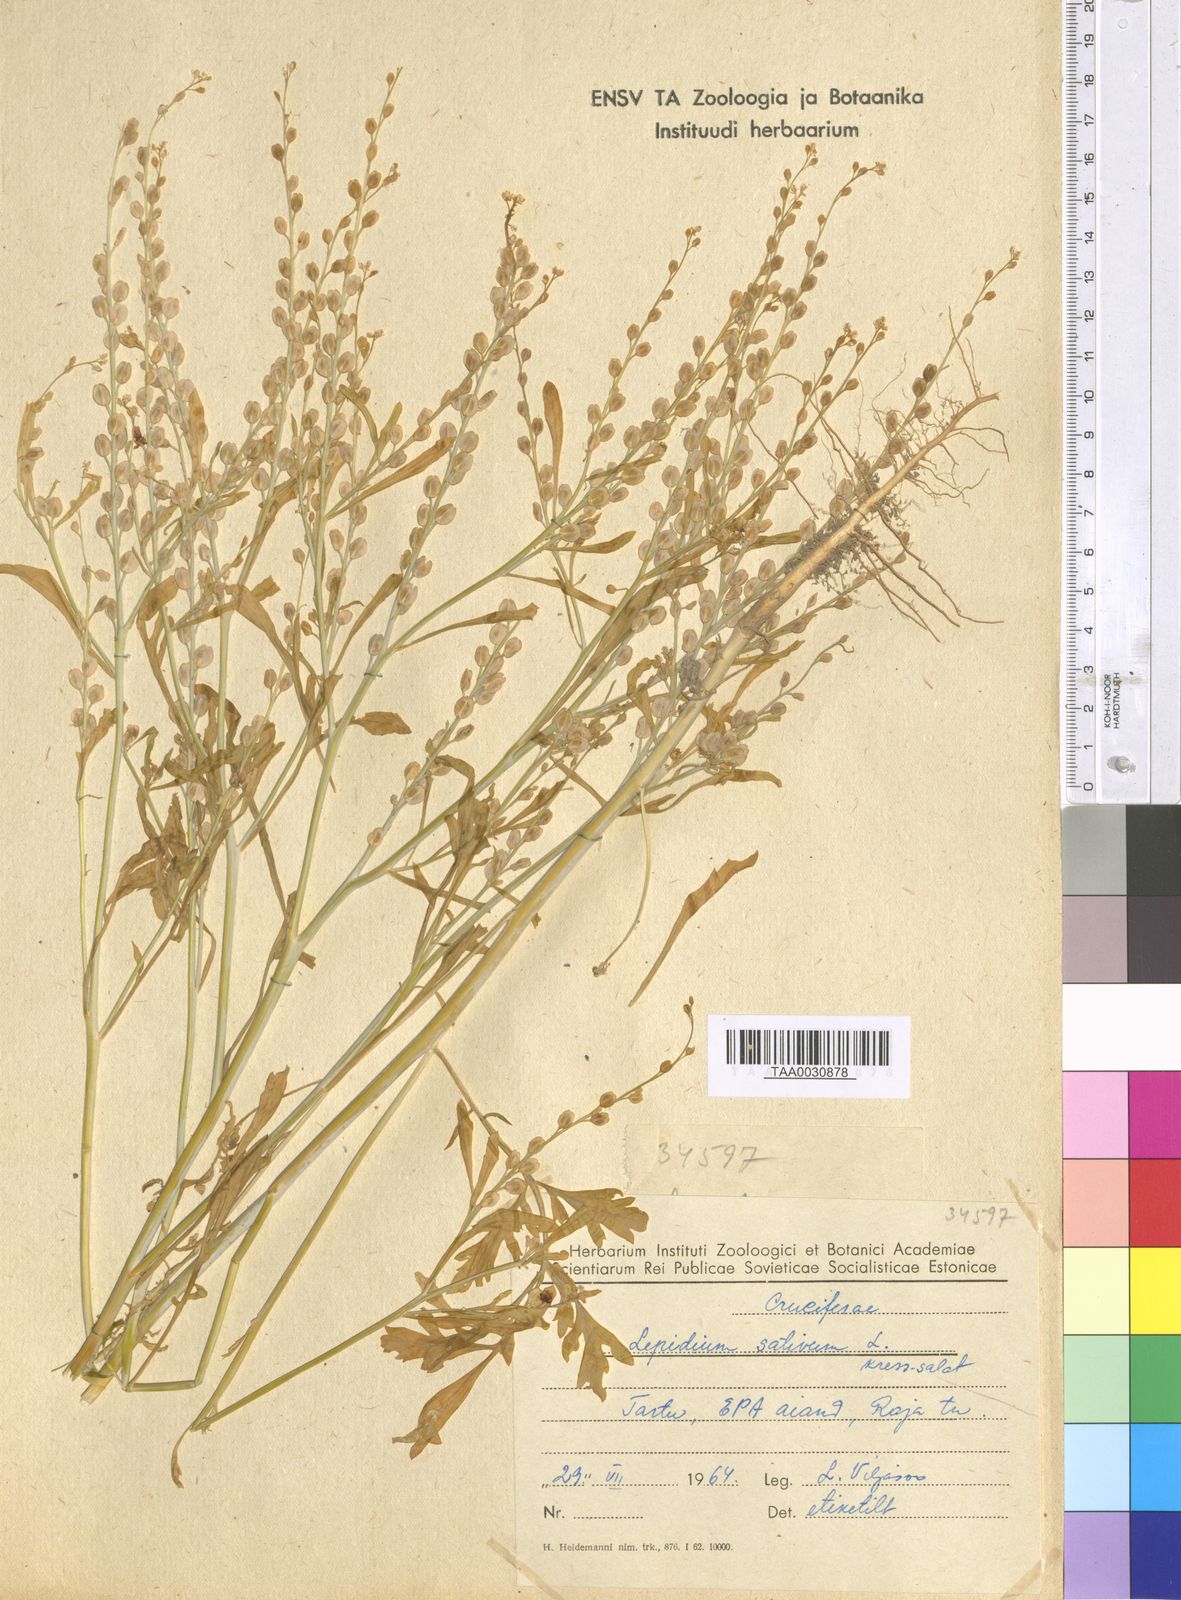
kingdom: Plantae
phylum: Tracheophyta
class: Magnoliopsida
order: Brassicales
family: Brassicaceae
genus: Lepidium
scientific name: Lepidium sativum
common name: Garden cress
